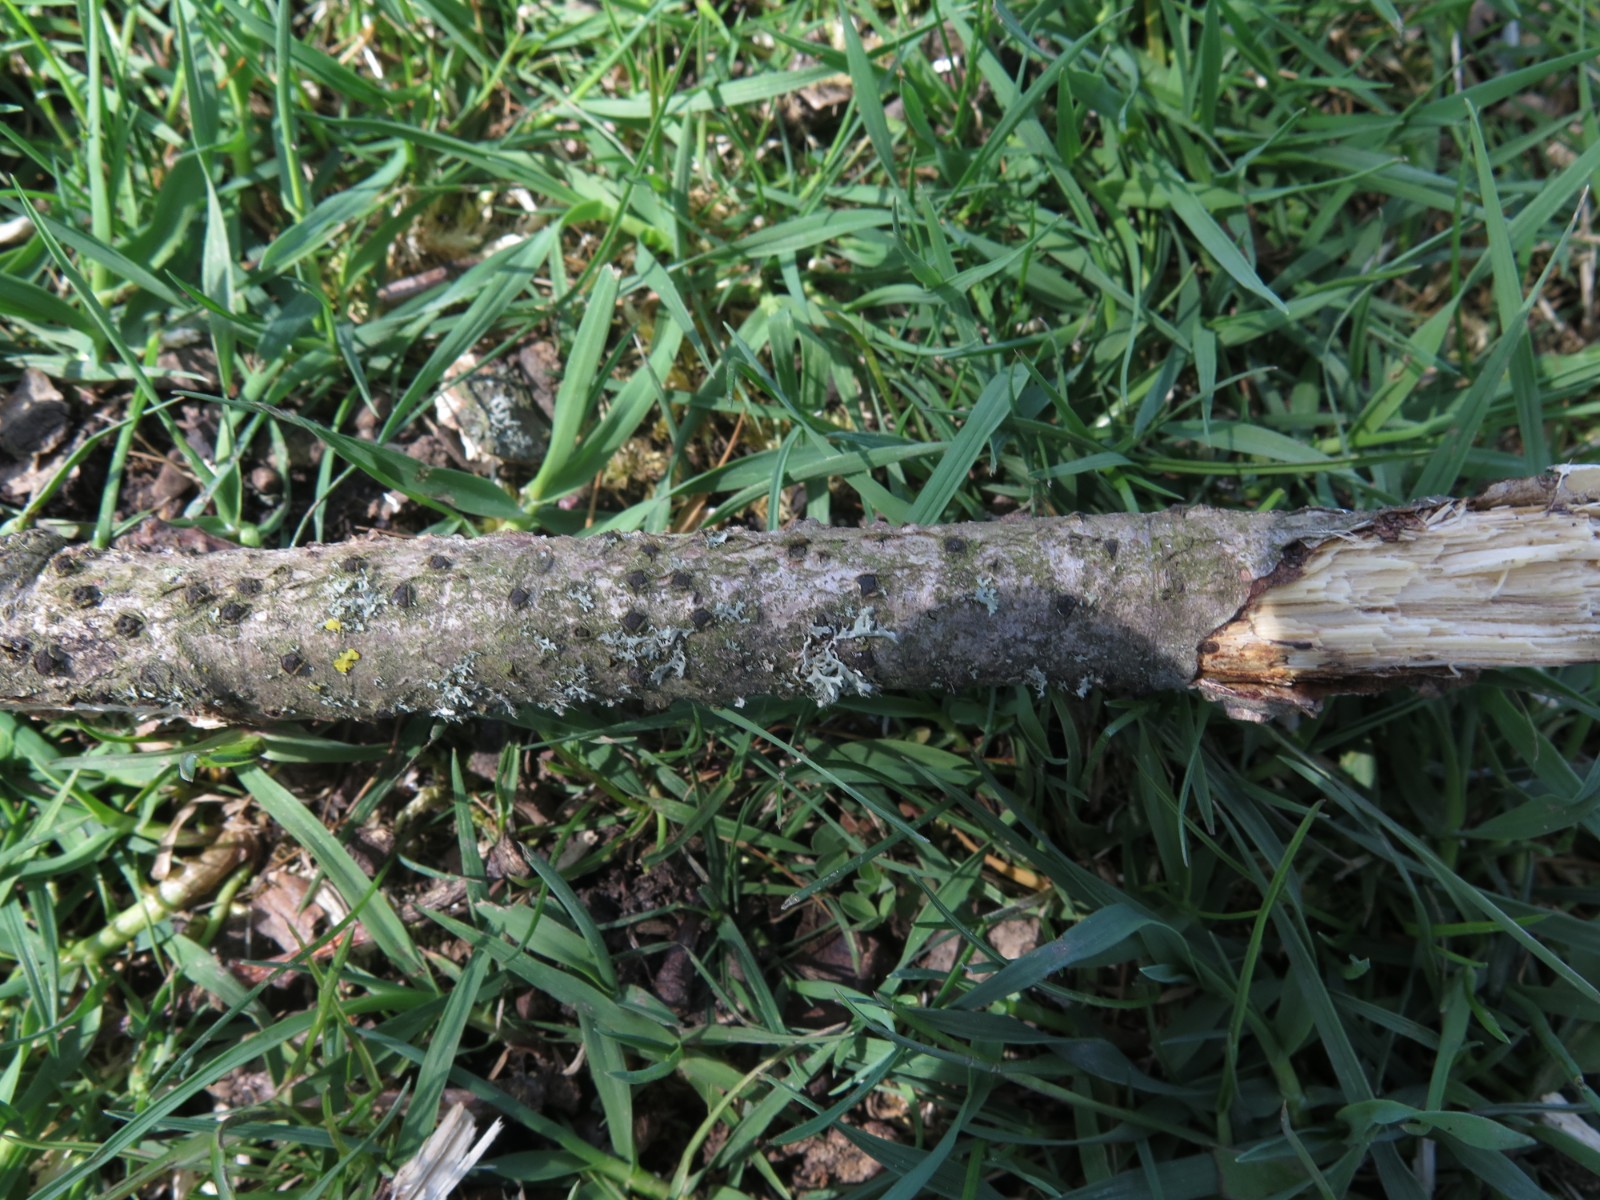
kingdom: Fungi
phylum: Ascomycota
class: Sordariomycetes
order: Xylariales
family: Diatrypaceae
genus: Diatrypella
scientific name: Diatrypella quercina
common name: ege-kulskorpe
